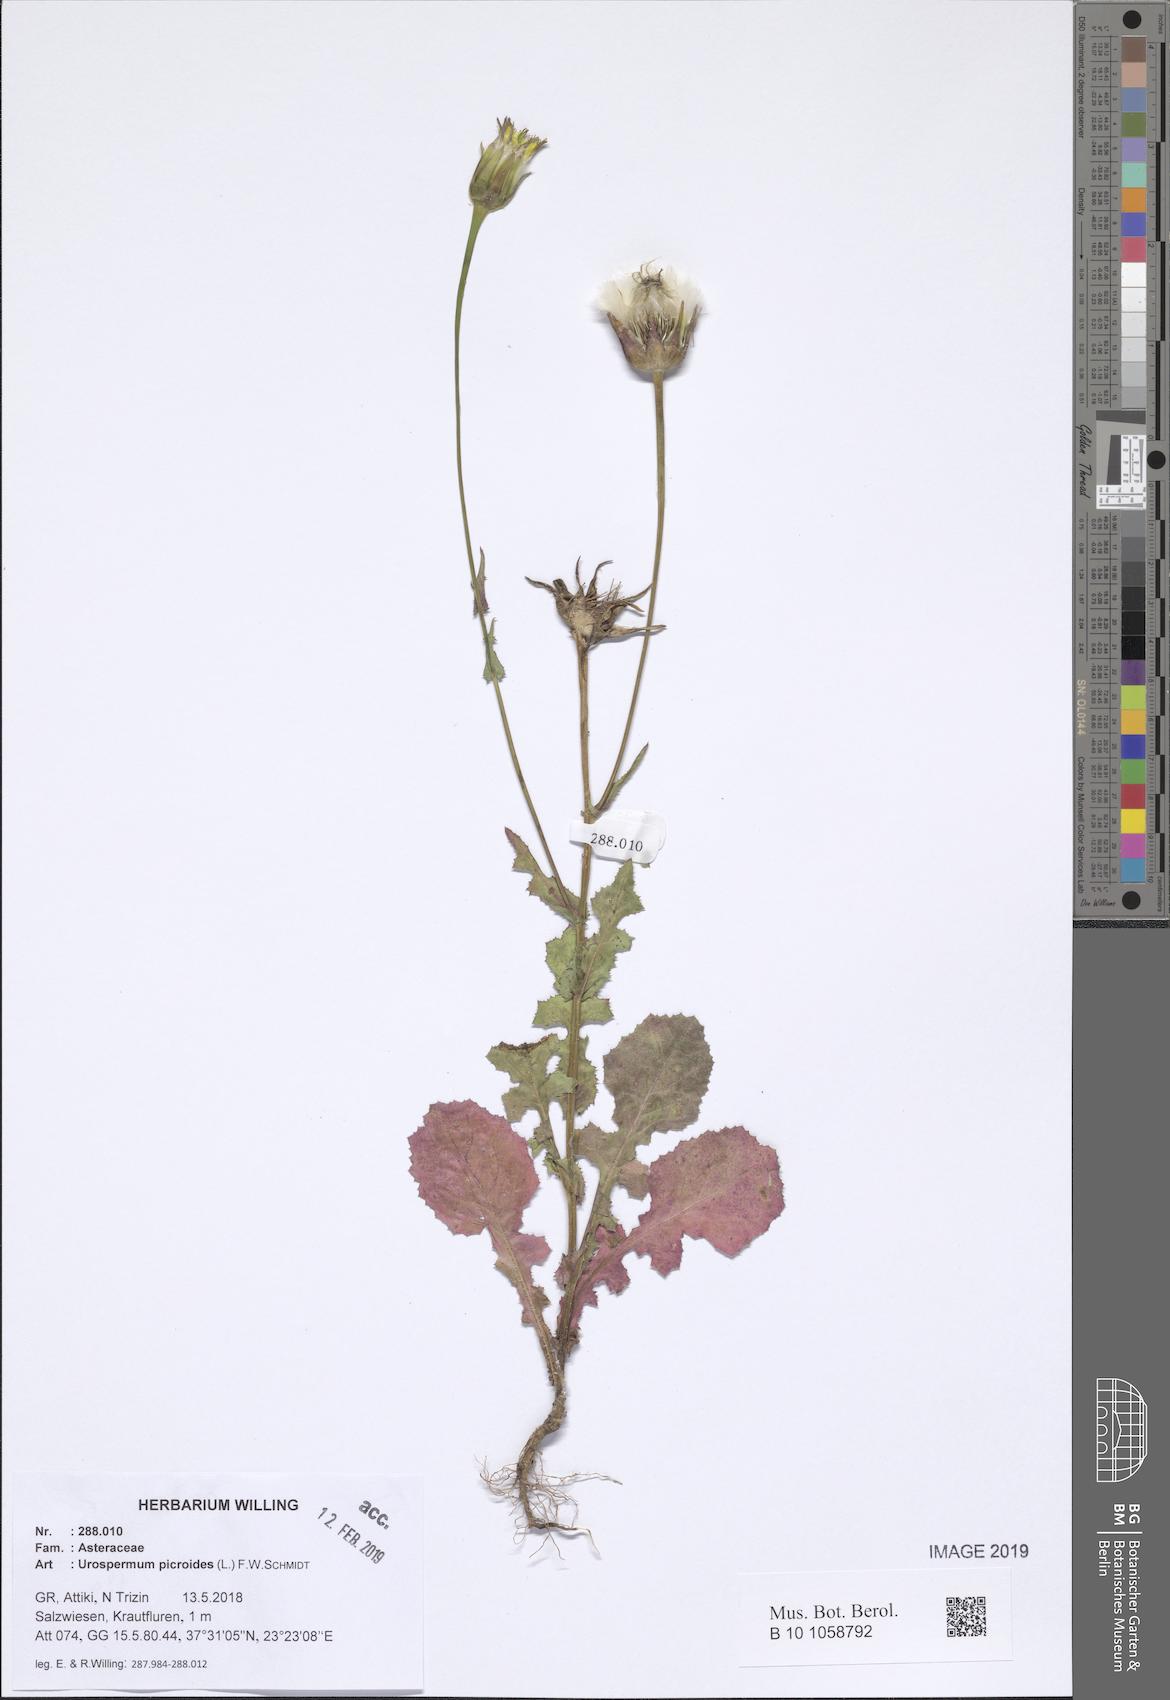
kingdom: Plantae
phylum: Tracheophyta
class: Magnoliopsida
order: Asterales
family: Asteraceae
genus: Urospermum
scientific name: Urospermum picroides
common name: False hawkbit
